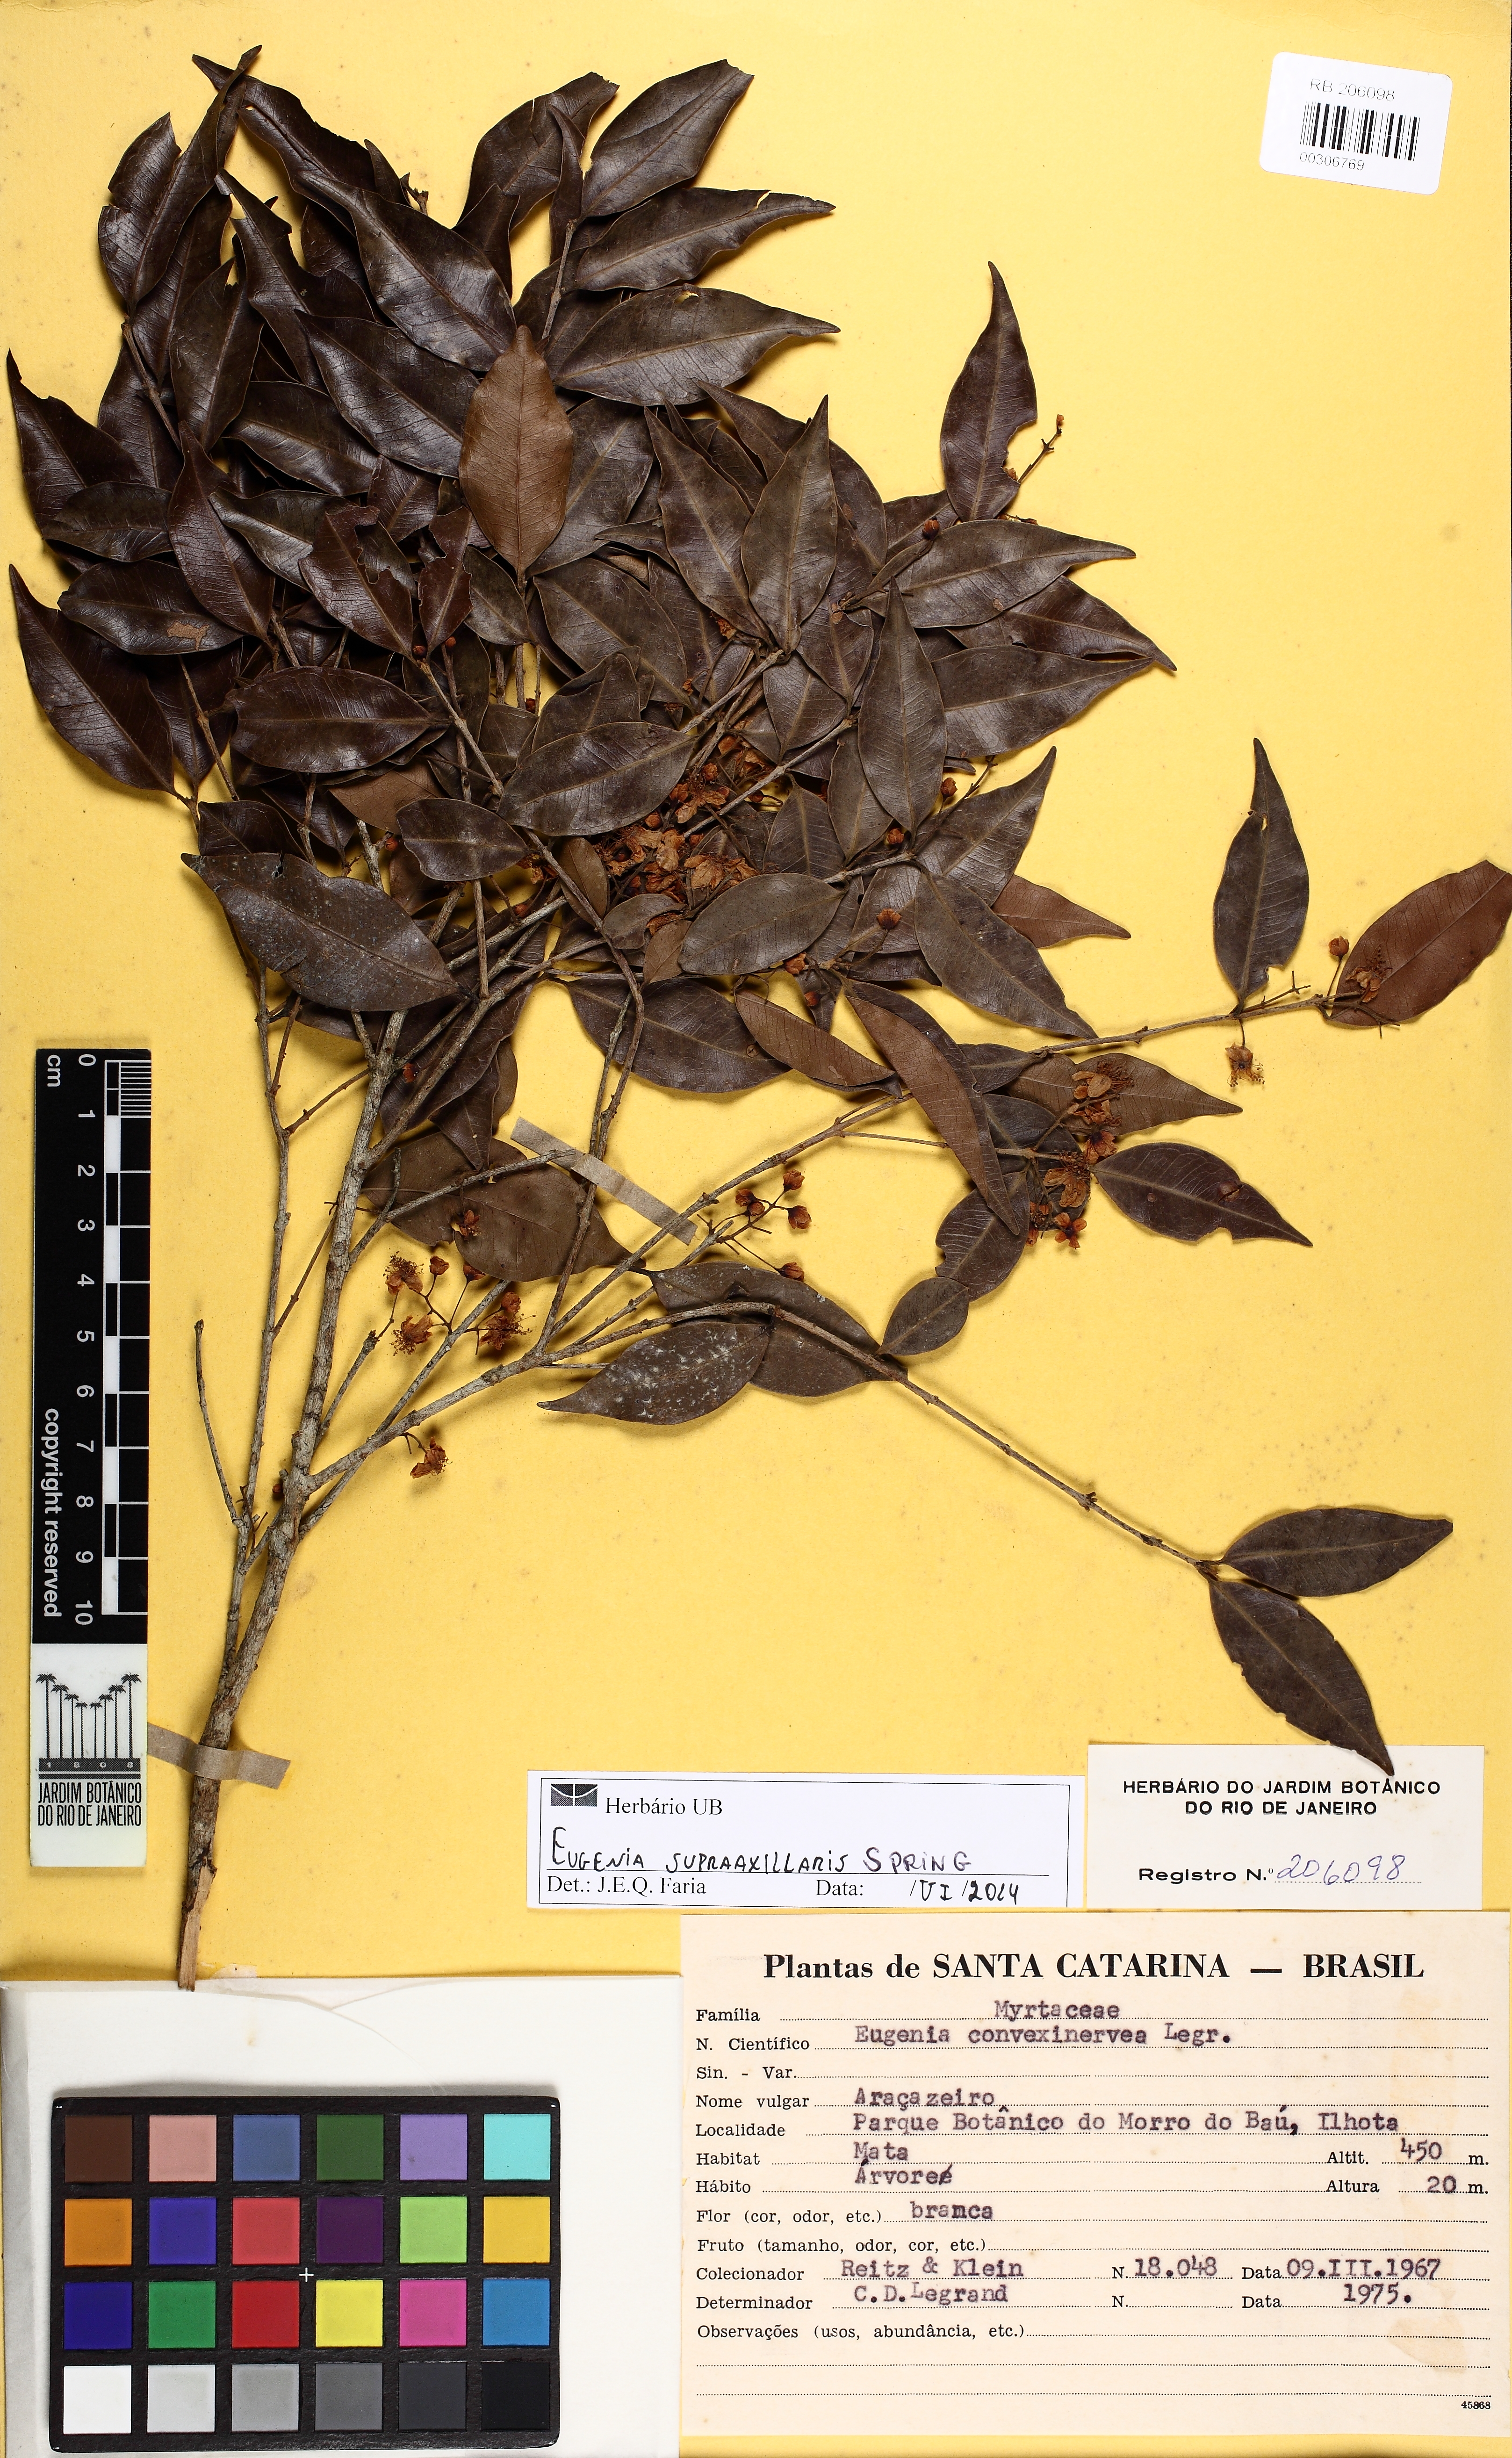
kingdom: Plantae
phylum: Tracheophyta
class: Magnoliopsida
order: Myrtales
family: Myrtaceae
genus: Eugenia
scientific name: Eugenia supraaxillaris
